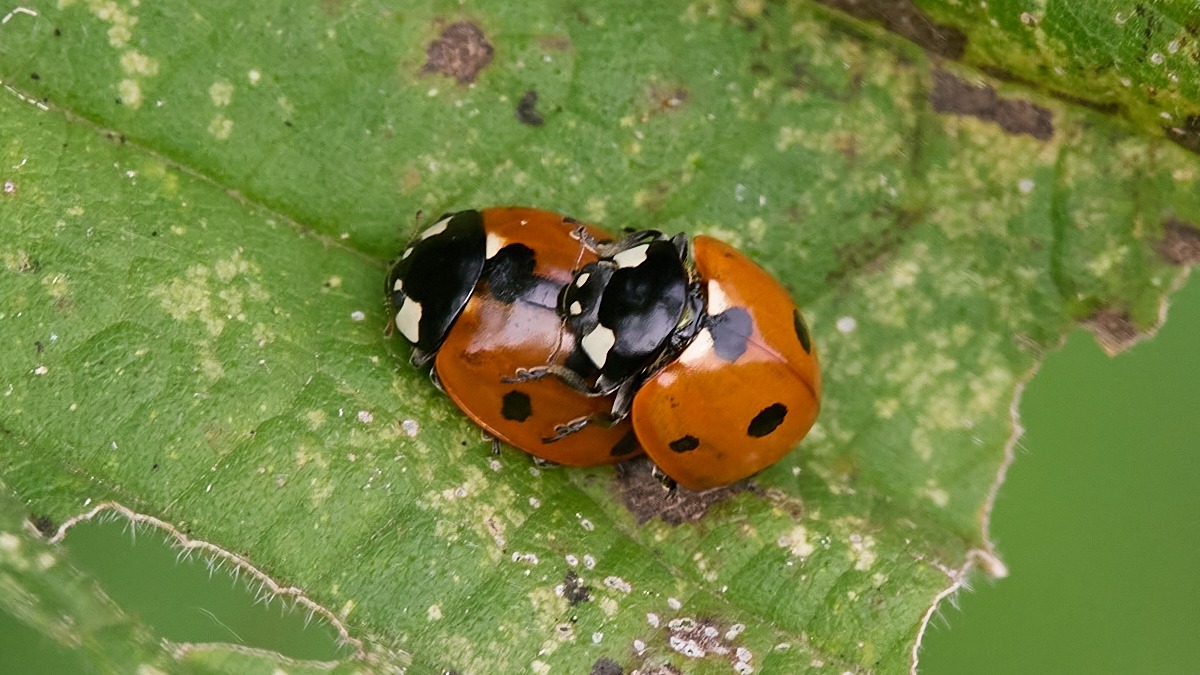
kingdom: Animalia
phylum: Arthropoda
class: Insecta
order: Coleoptera
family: Coccinellidae
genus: Coccinella
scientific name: Coccinella septempunctata
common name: Syvplettet mariehøne
